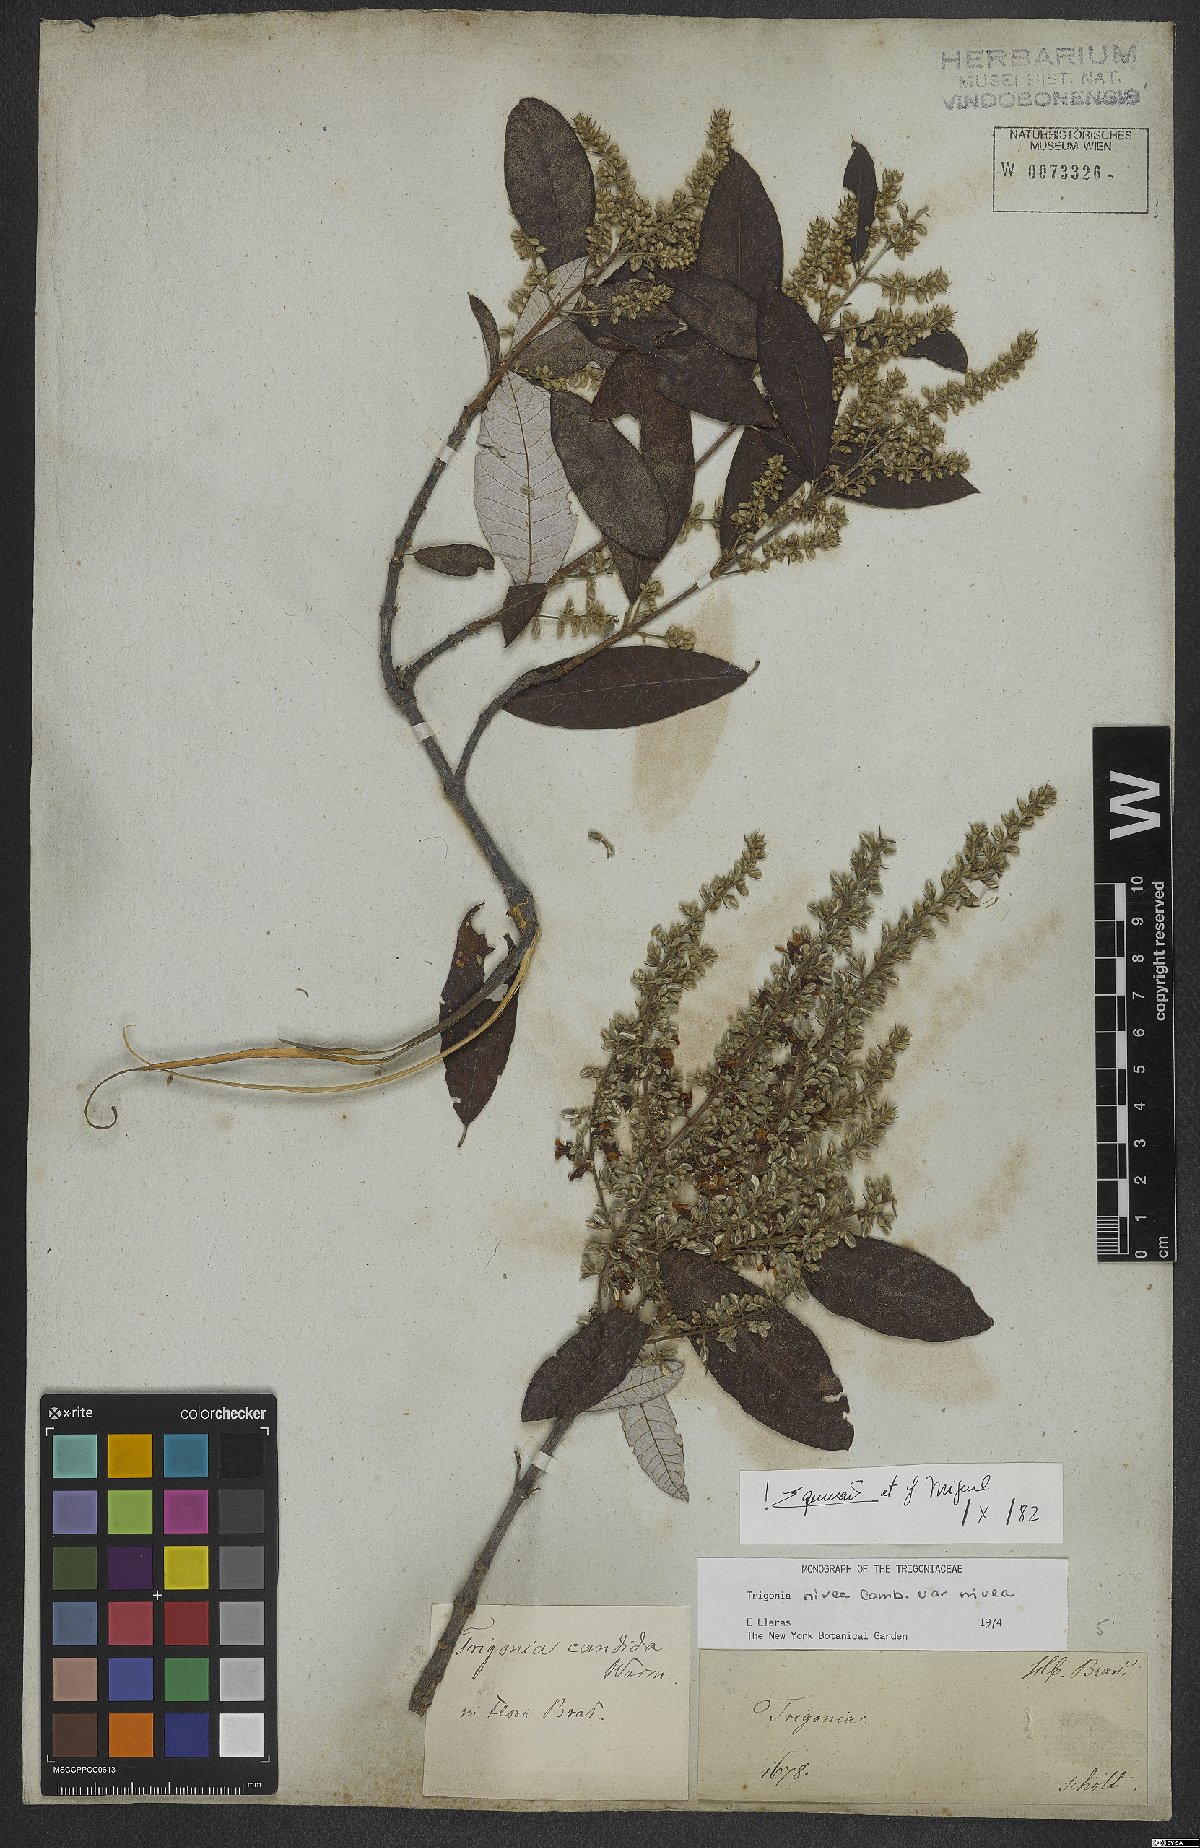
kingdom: Plantae
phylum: Tracheophyta
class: Magnoliopsida
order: Malpighiales
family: Trigoniaceae
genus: Trigonia
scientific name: Trigonia nivea
